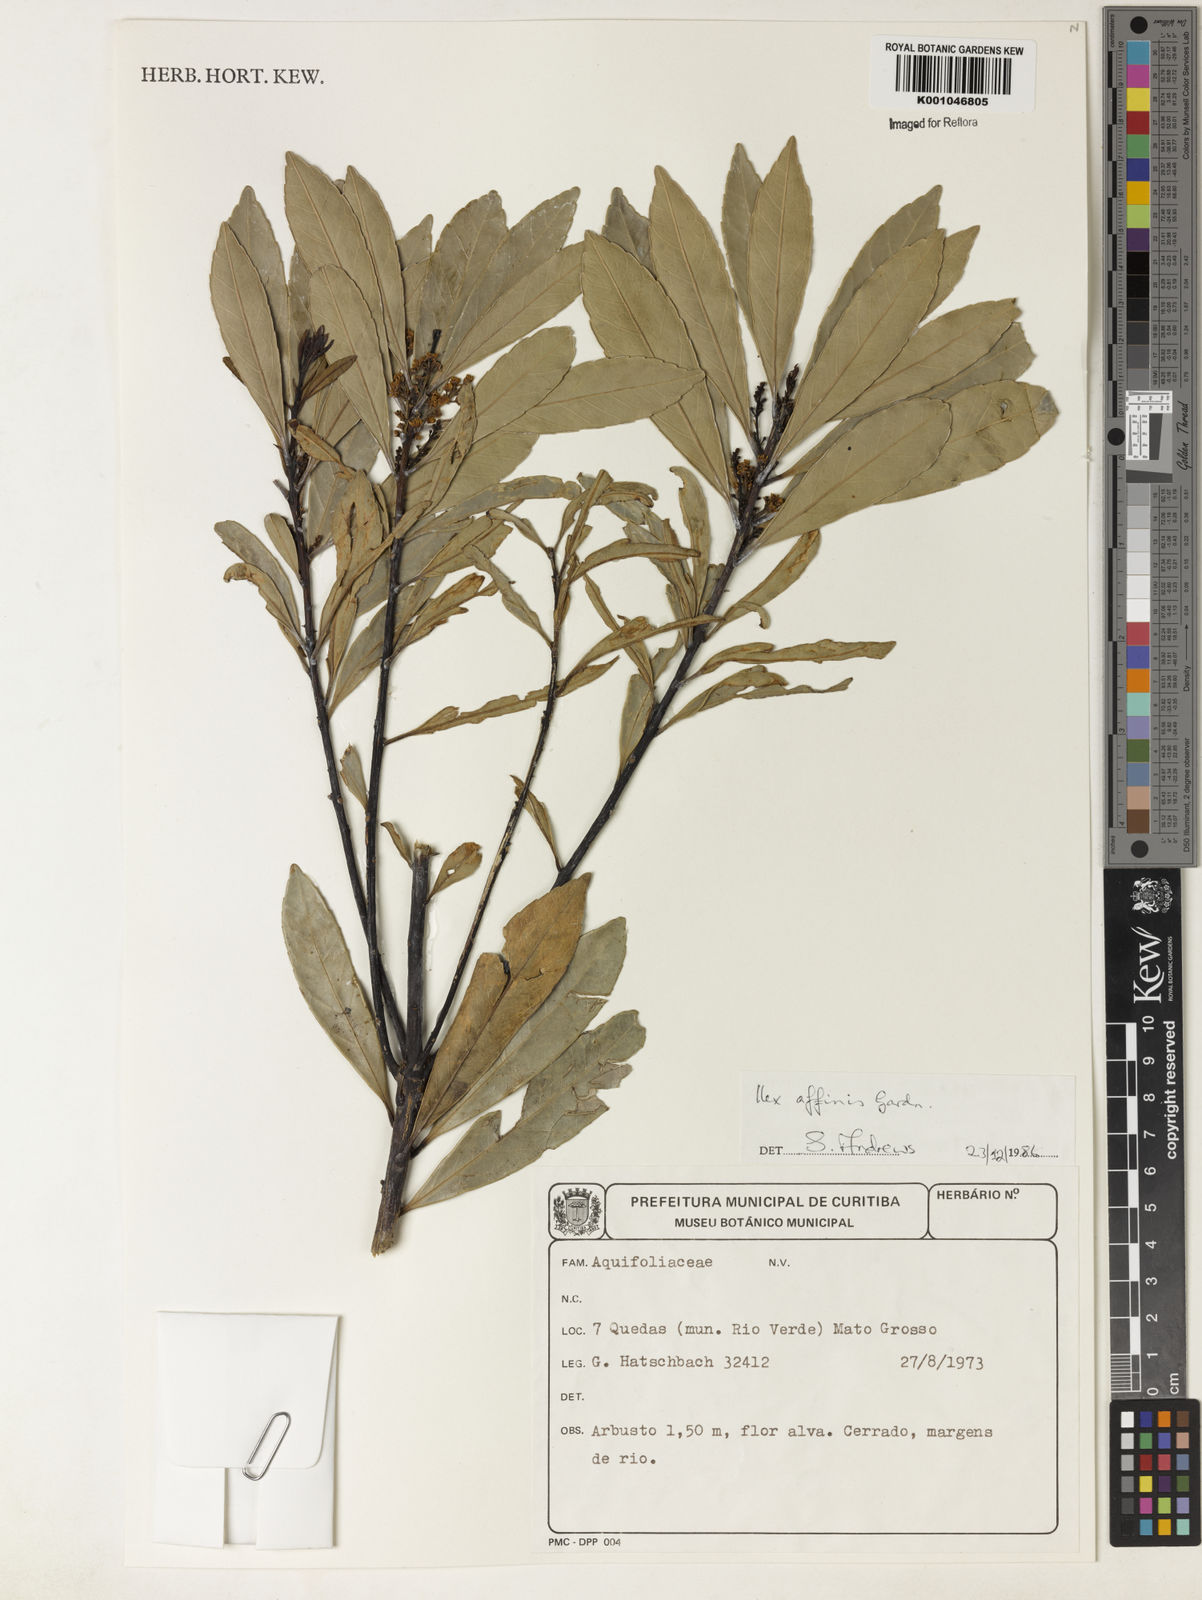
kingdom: Plantae
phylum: Tracheophyta
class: Magnoliopsida
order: Aquifoliales
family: Aquifoliaceae
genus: Ilex
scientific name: Ilex affinis
